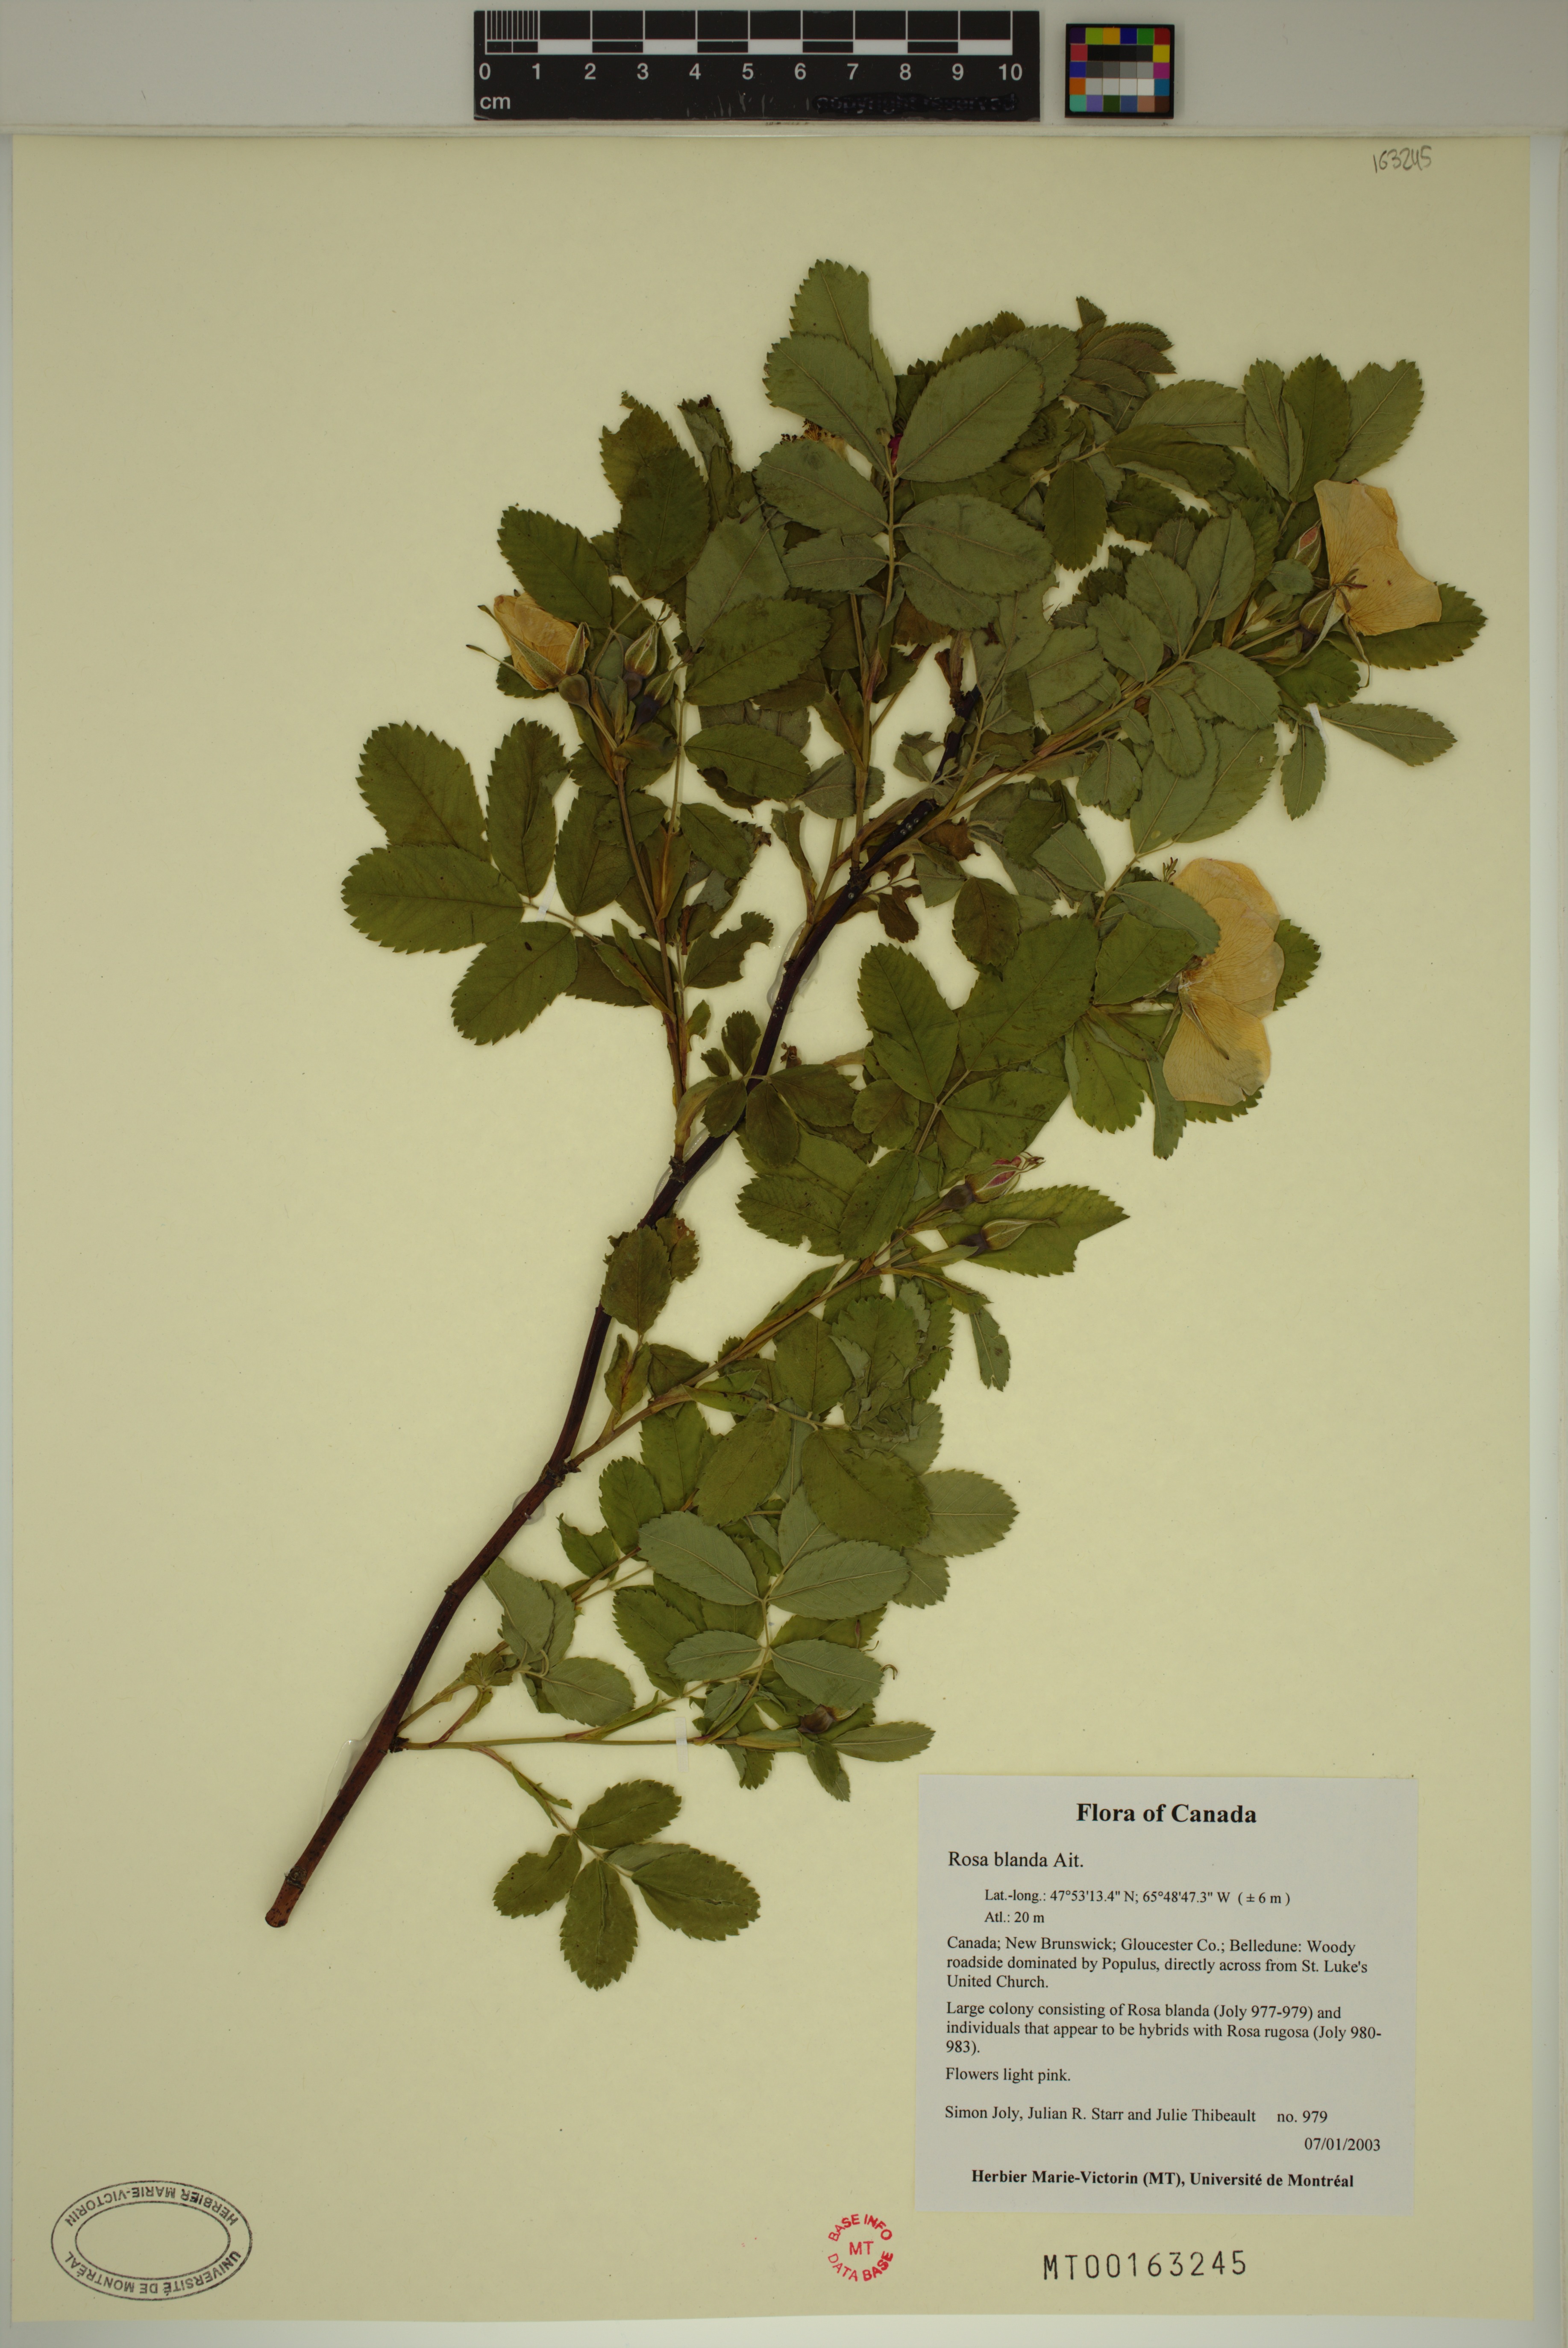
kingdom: Plantae
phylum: Tracheophyta
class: Magnoliopsida
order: Rosales
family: Rosaceae
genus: Rosa
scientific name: Rosa blanda
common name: Smooth rose
